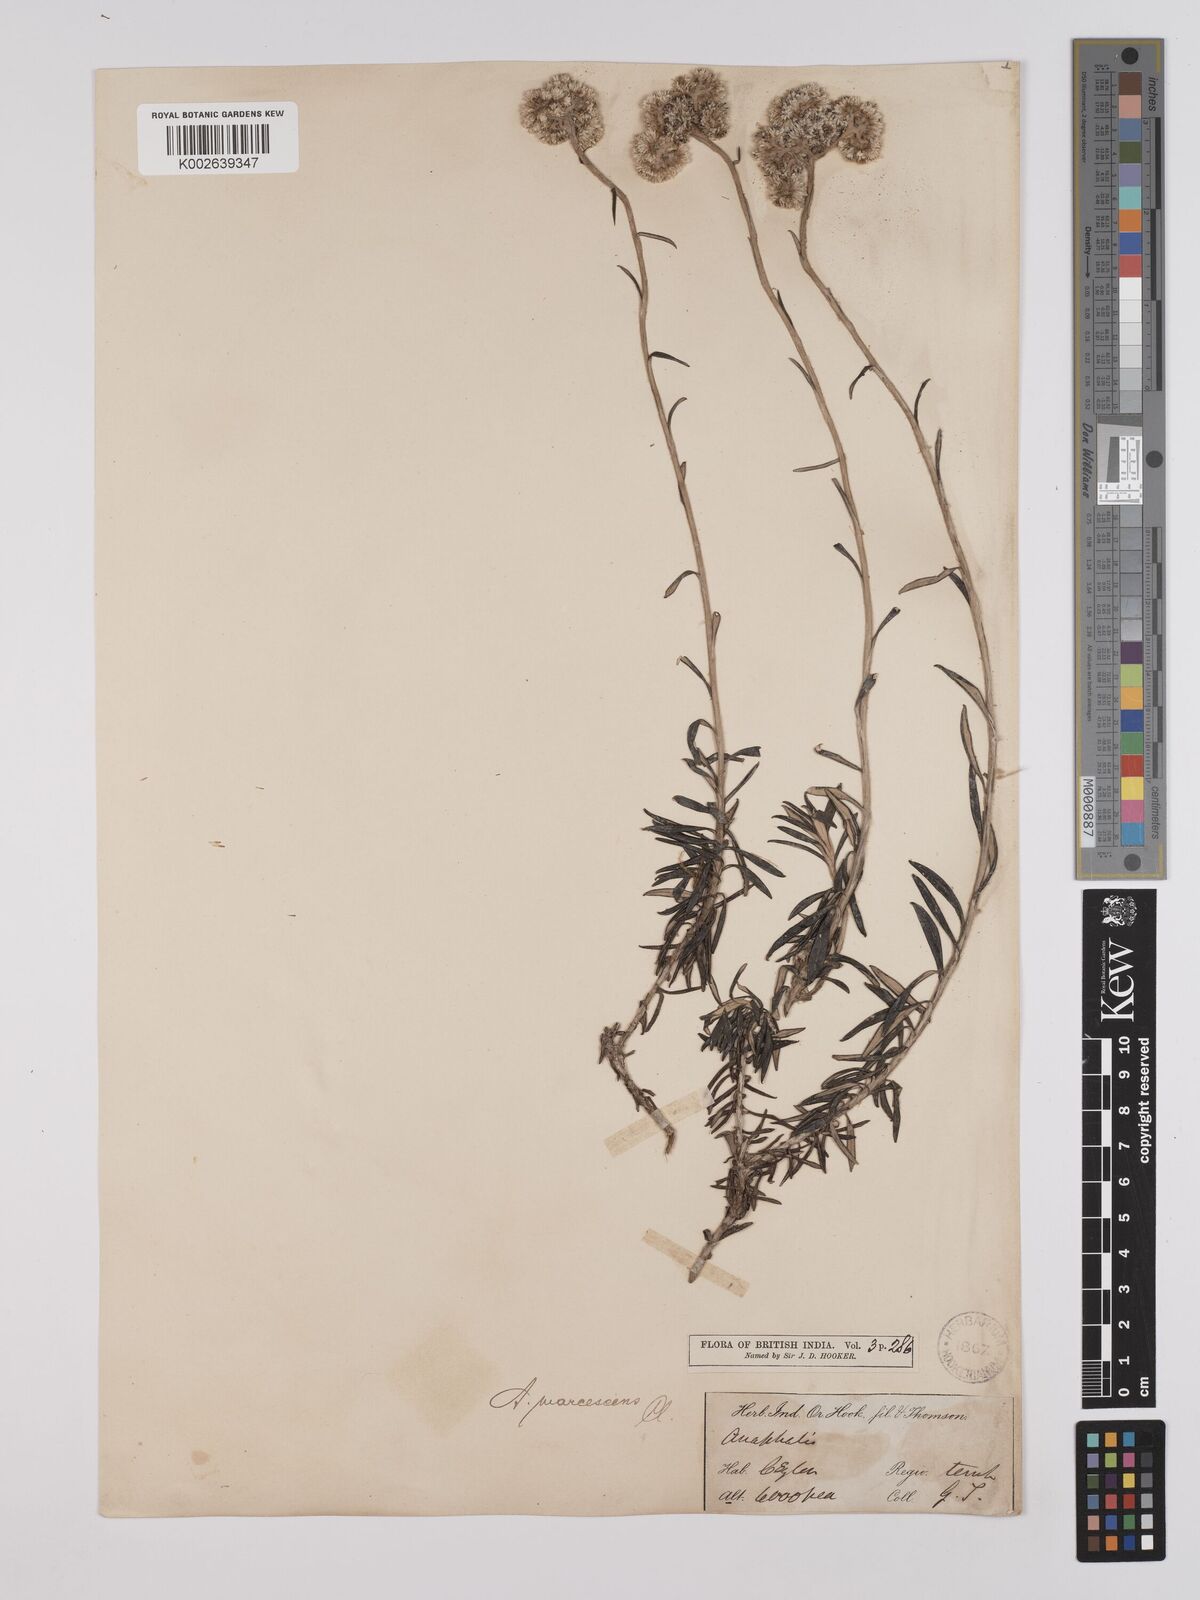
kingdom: Plantae
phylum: Tracheophyta
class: Magnoliopsida
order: Asterales
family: Asteraceae
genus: Anaphalis
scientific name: Anaphalis marcescens
